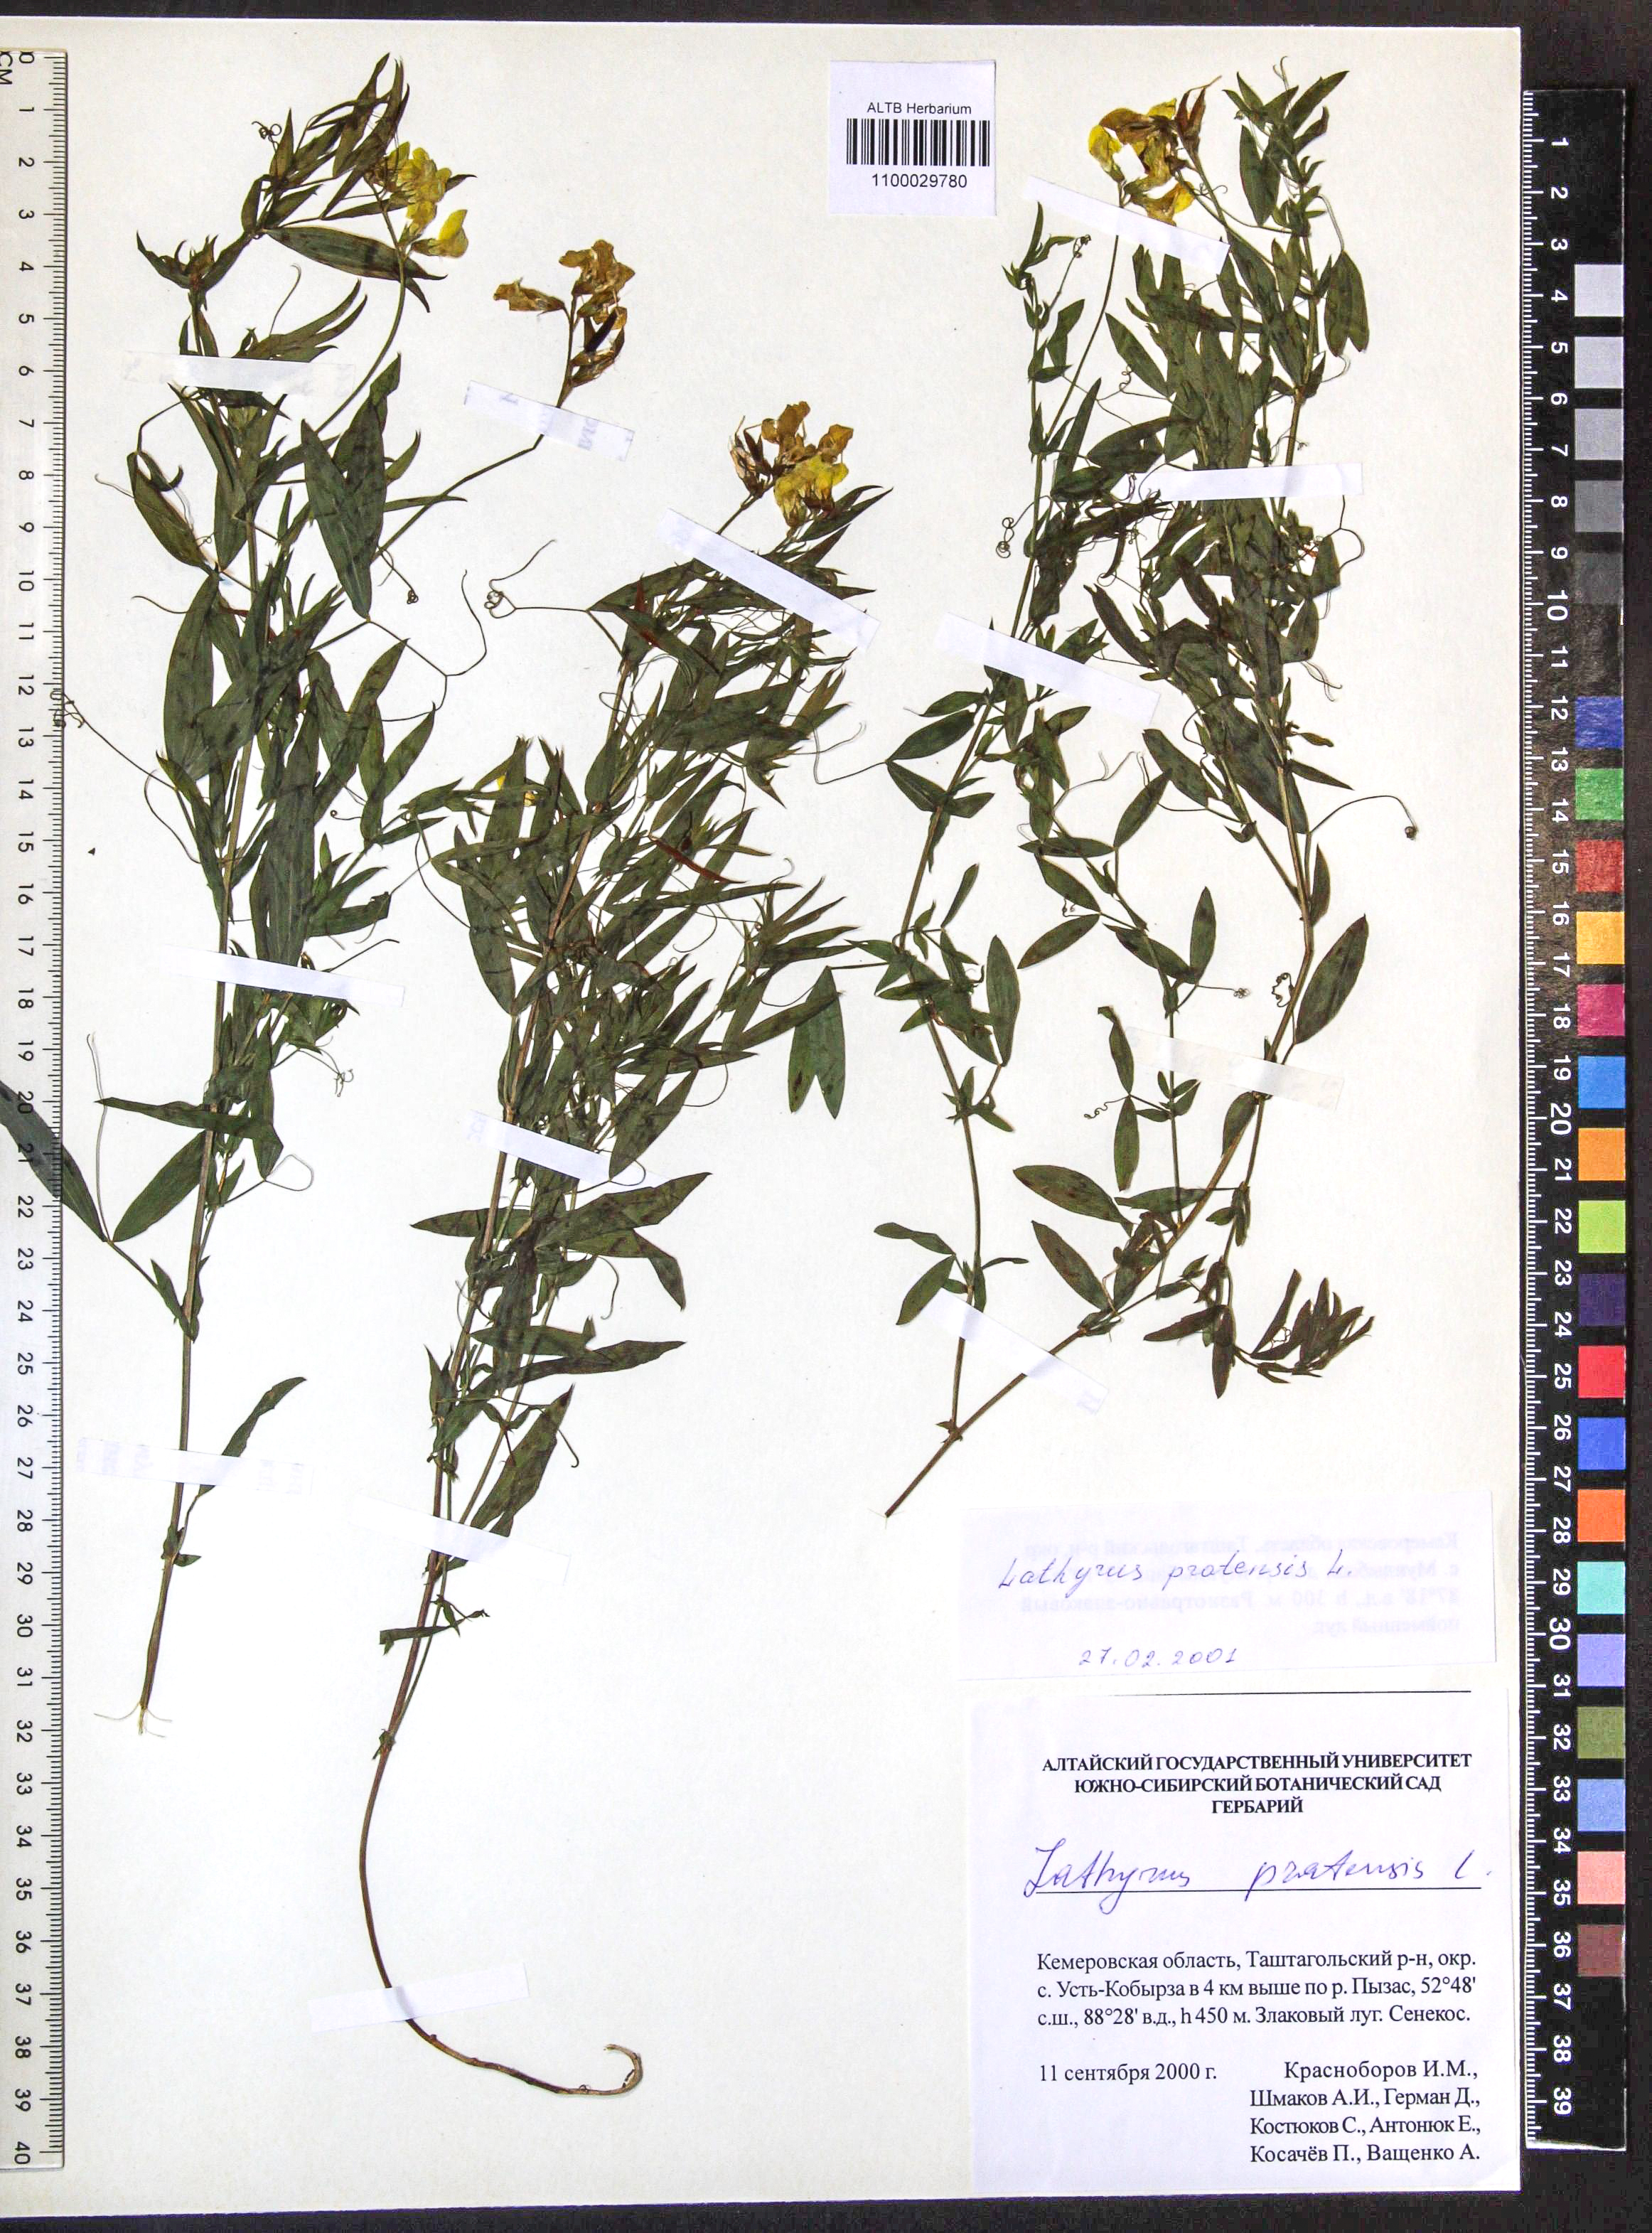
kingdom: Plantae
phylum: Tracheophyta
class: Magnoliopsida
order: Fabales
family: Fabaceae
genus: Lathyrus
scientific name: Lathyrus pratensis
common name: Meadow vetchling
